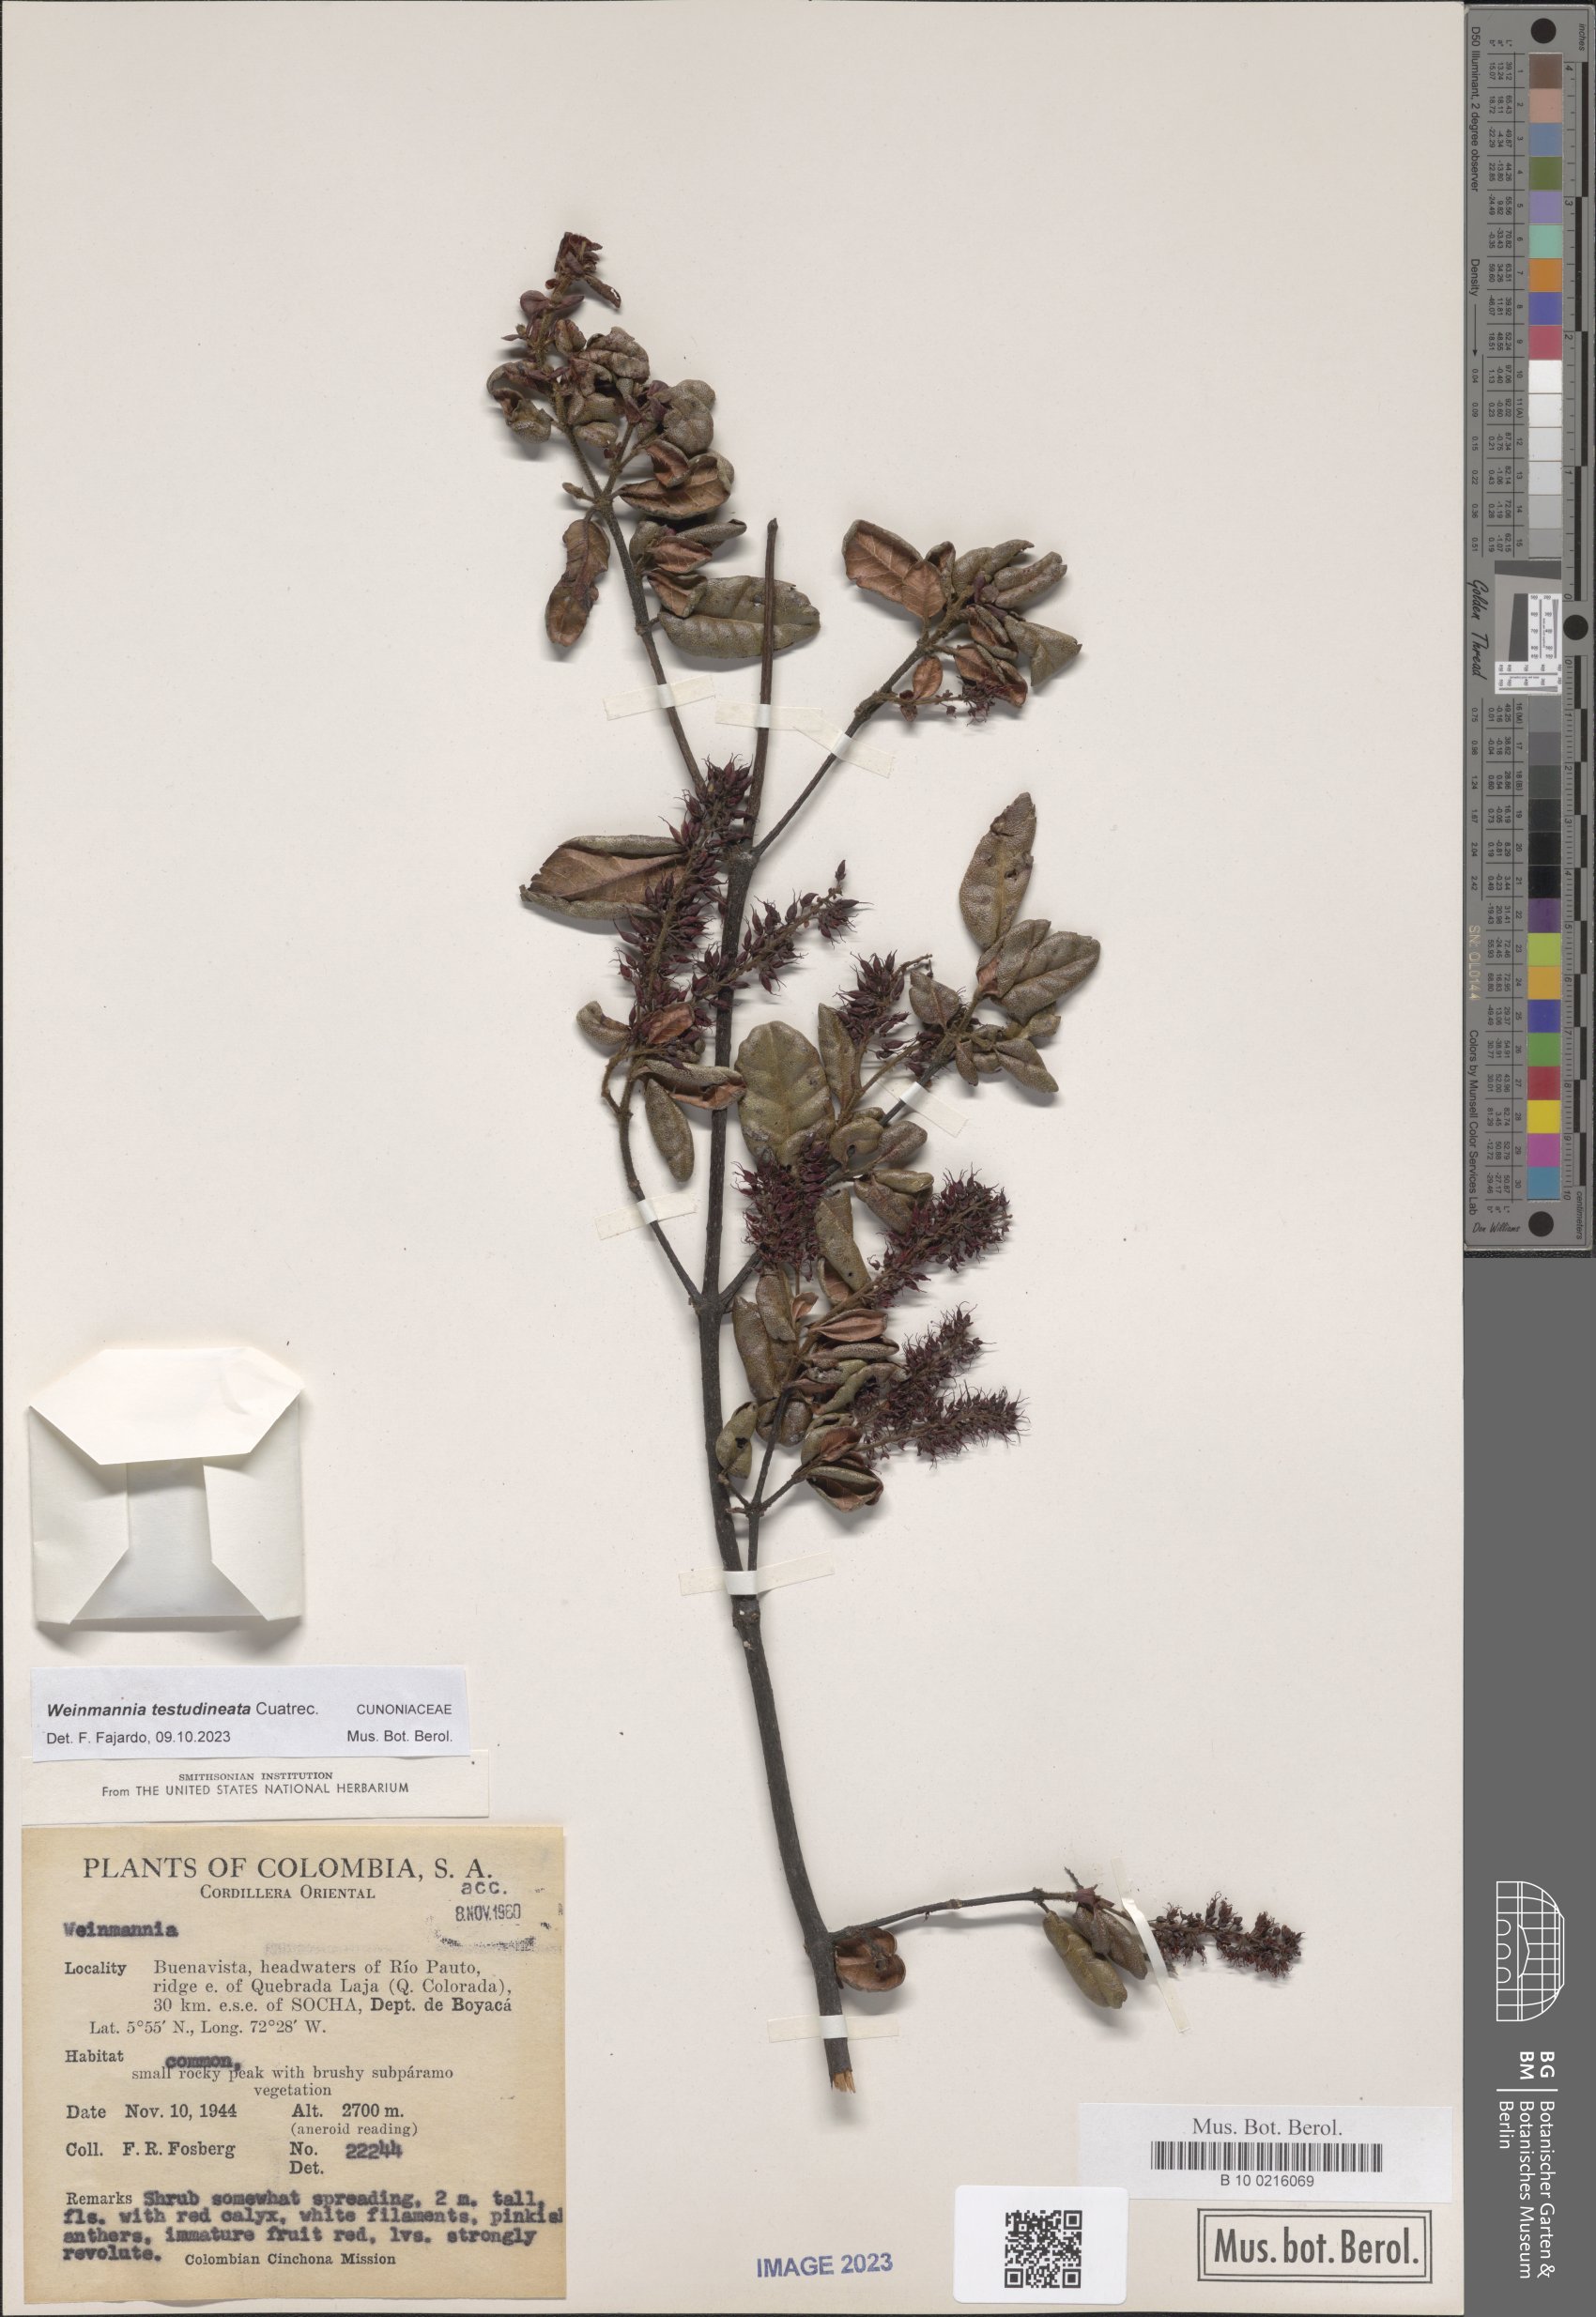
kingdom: Plantae
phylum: Tracheophyta
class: Magnoliopsida
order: Oxalidales
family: Cunoniaceae
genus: Weinmannia
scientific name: Weinmannia testudineata
